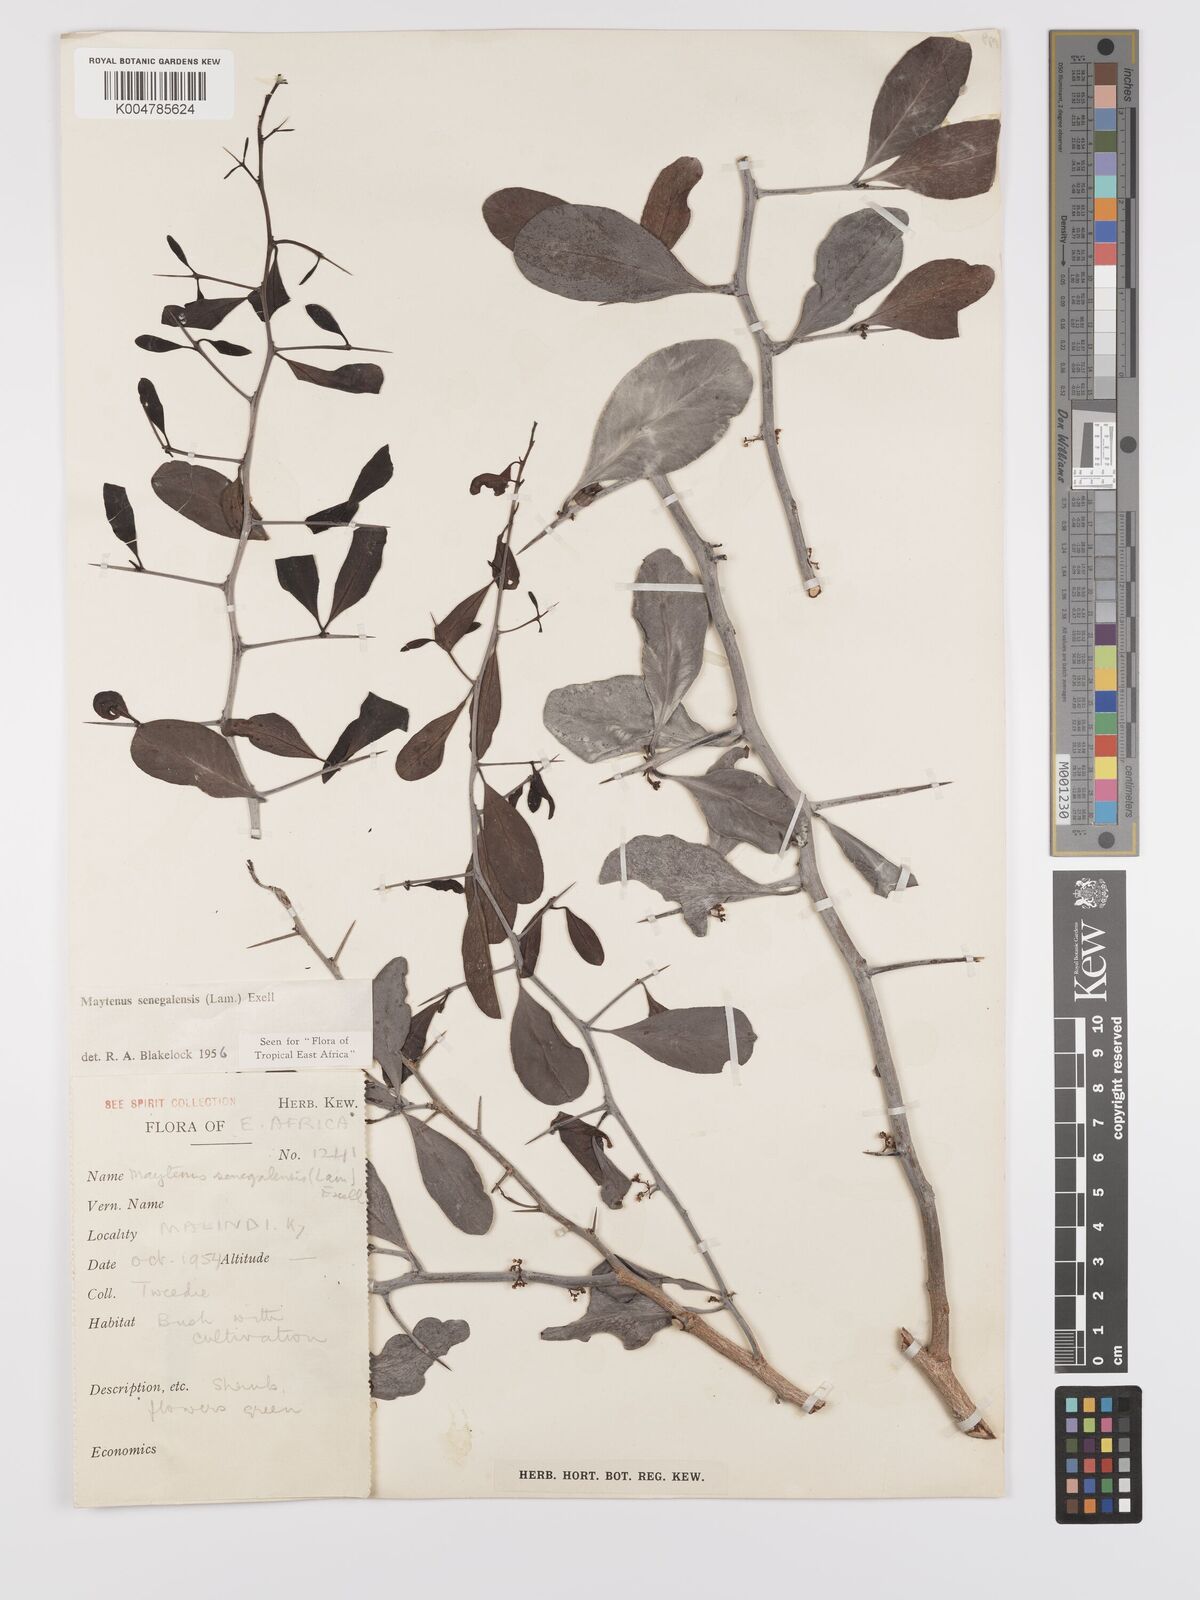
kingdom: Plantae
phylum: Tracheophyta
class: Magnoliopsida
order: Celastrales
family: Celastraceae
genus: Gymnosporia
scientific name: Gymnosporia senegalensis
